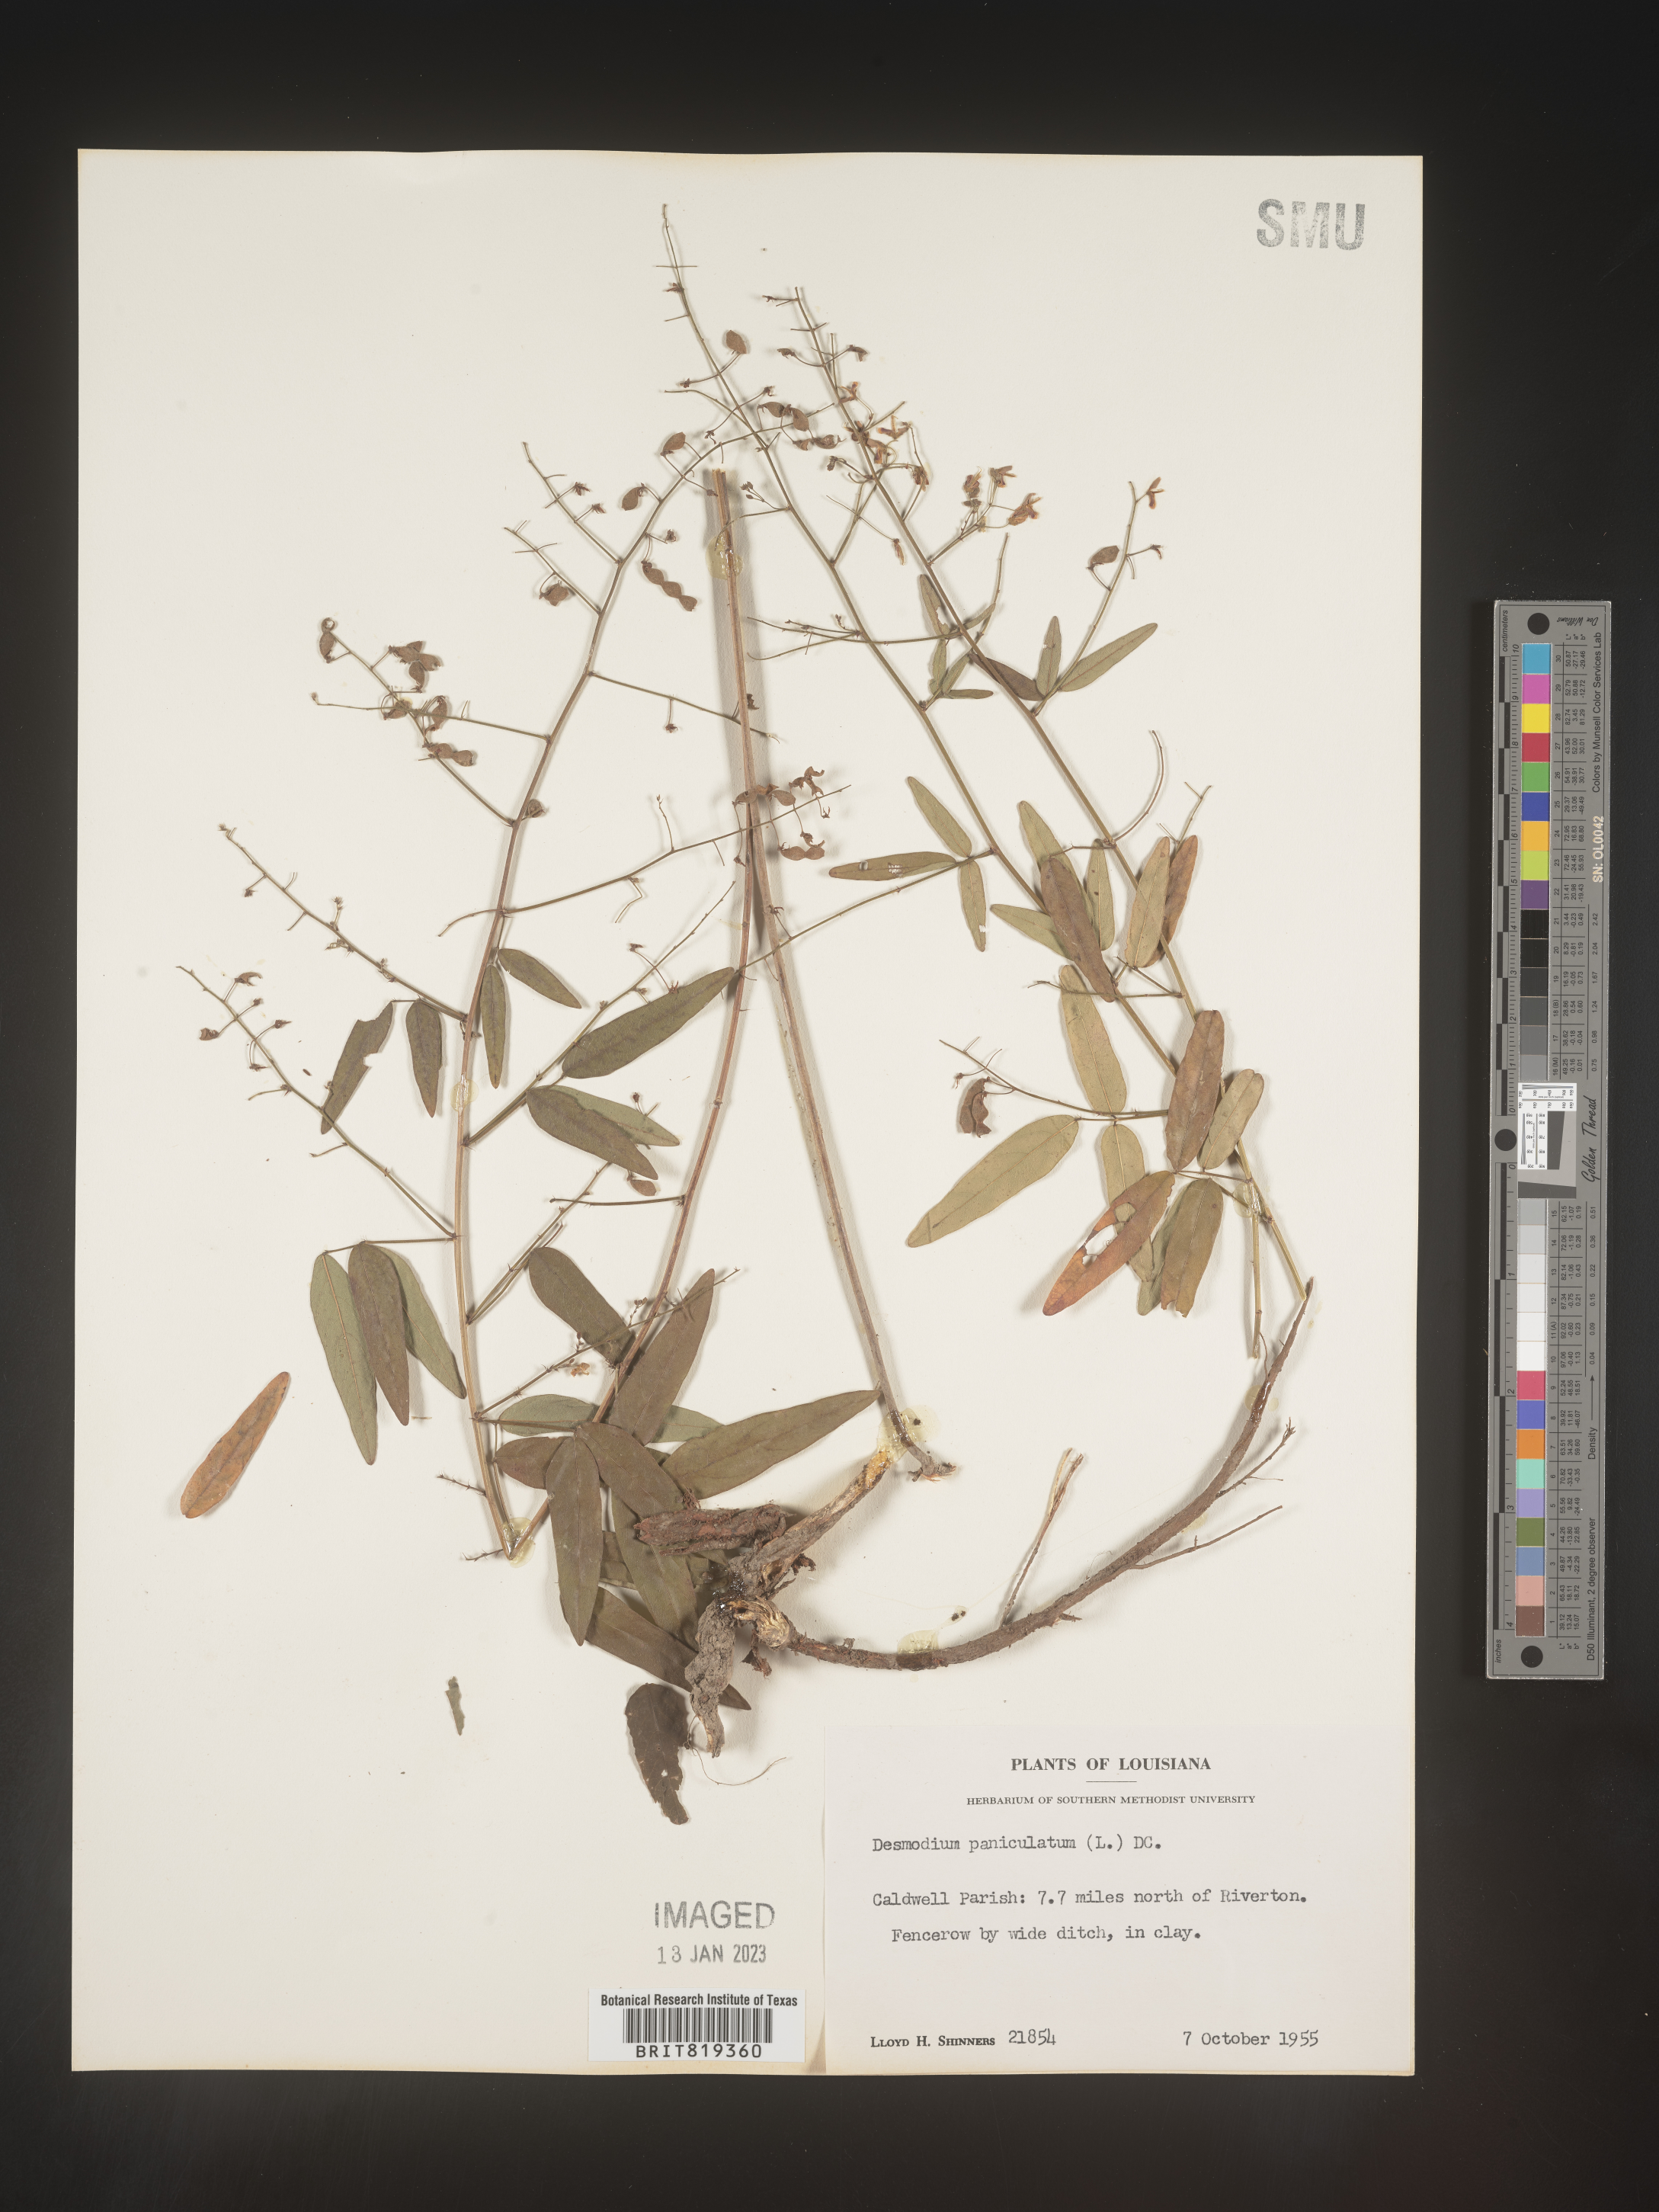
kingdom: Plantae
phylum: Tracheophyta
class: Magnoliopsida
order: Fabales
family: Fabaceae
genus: Desmodium
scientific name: Desmodium paniculatum
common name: Panicled tick-clover
